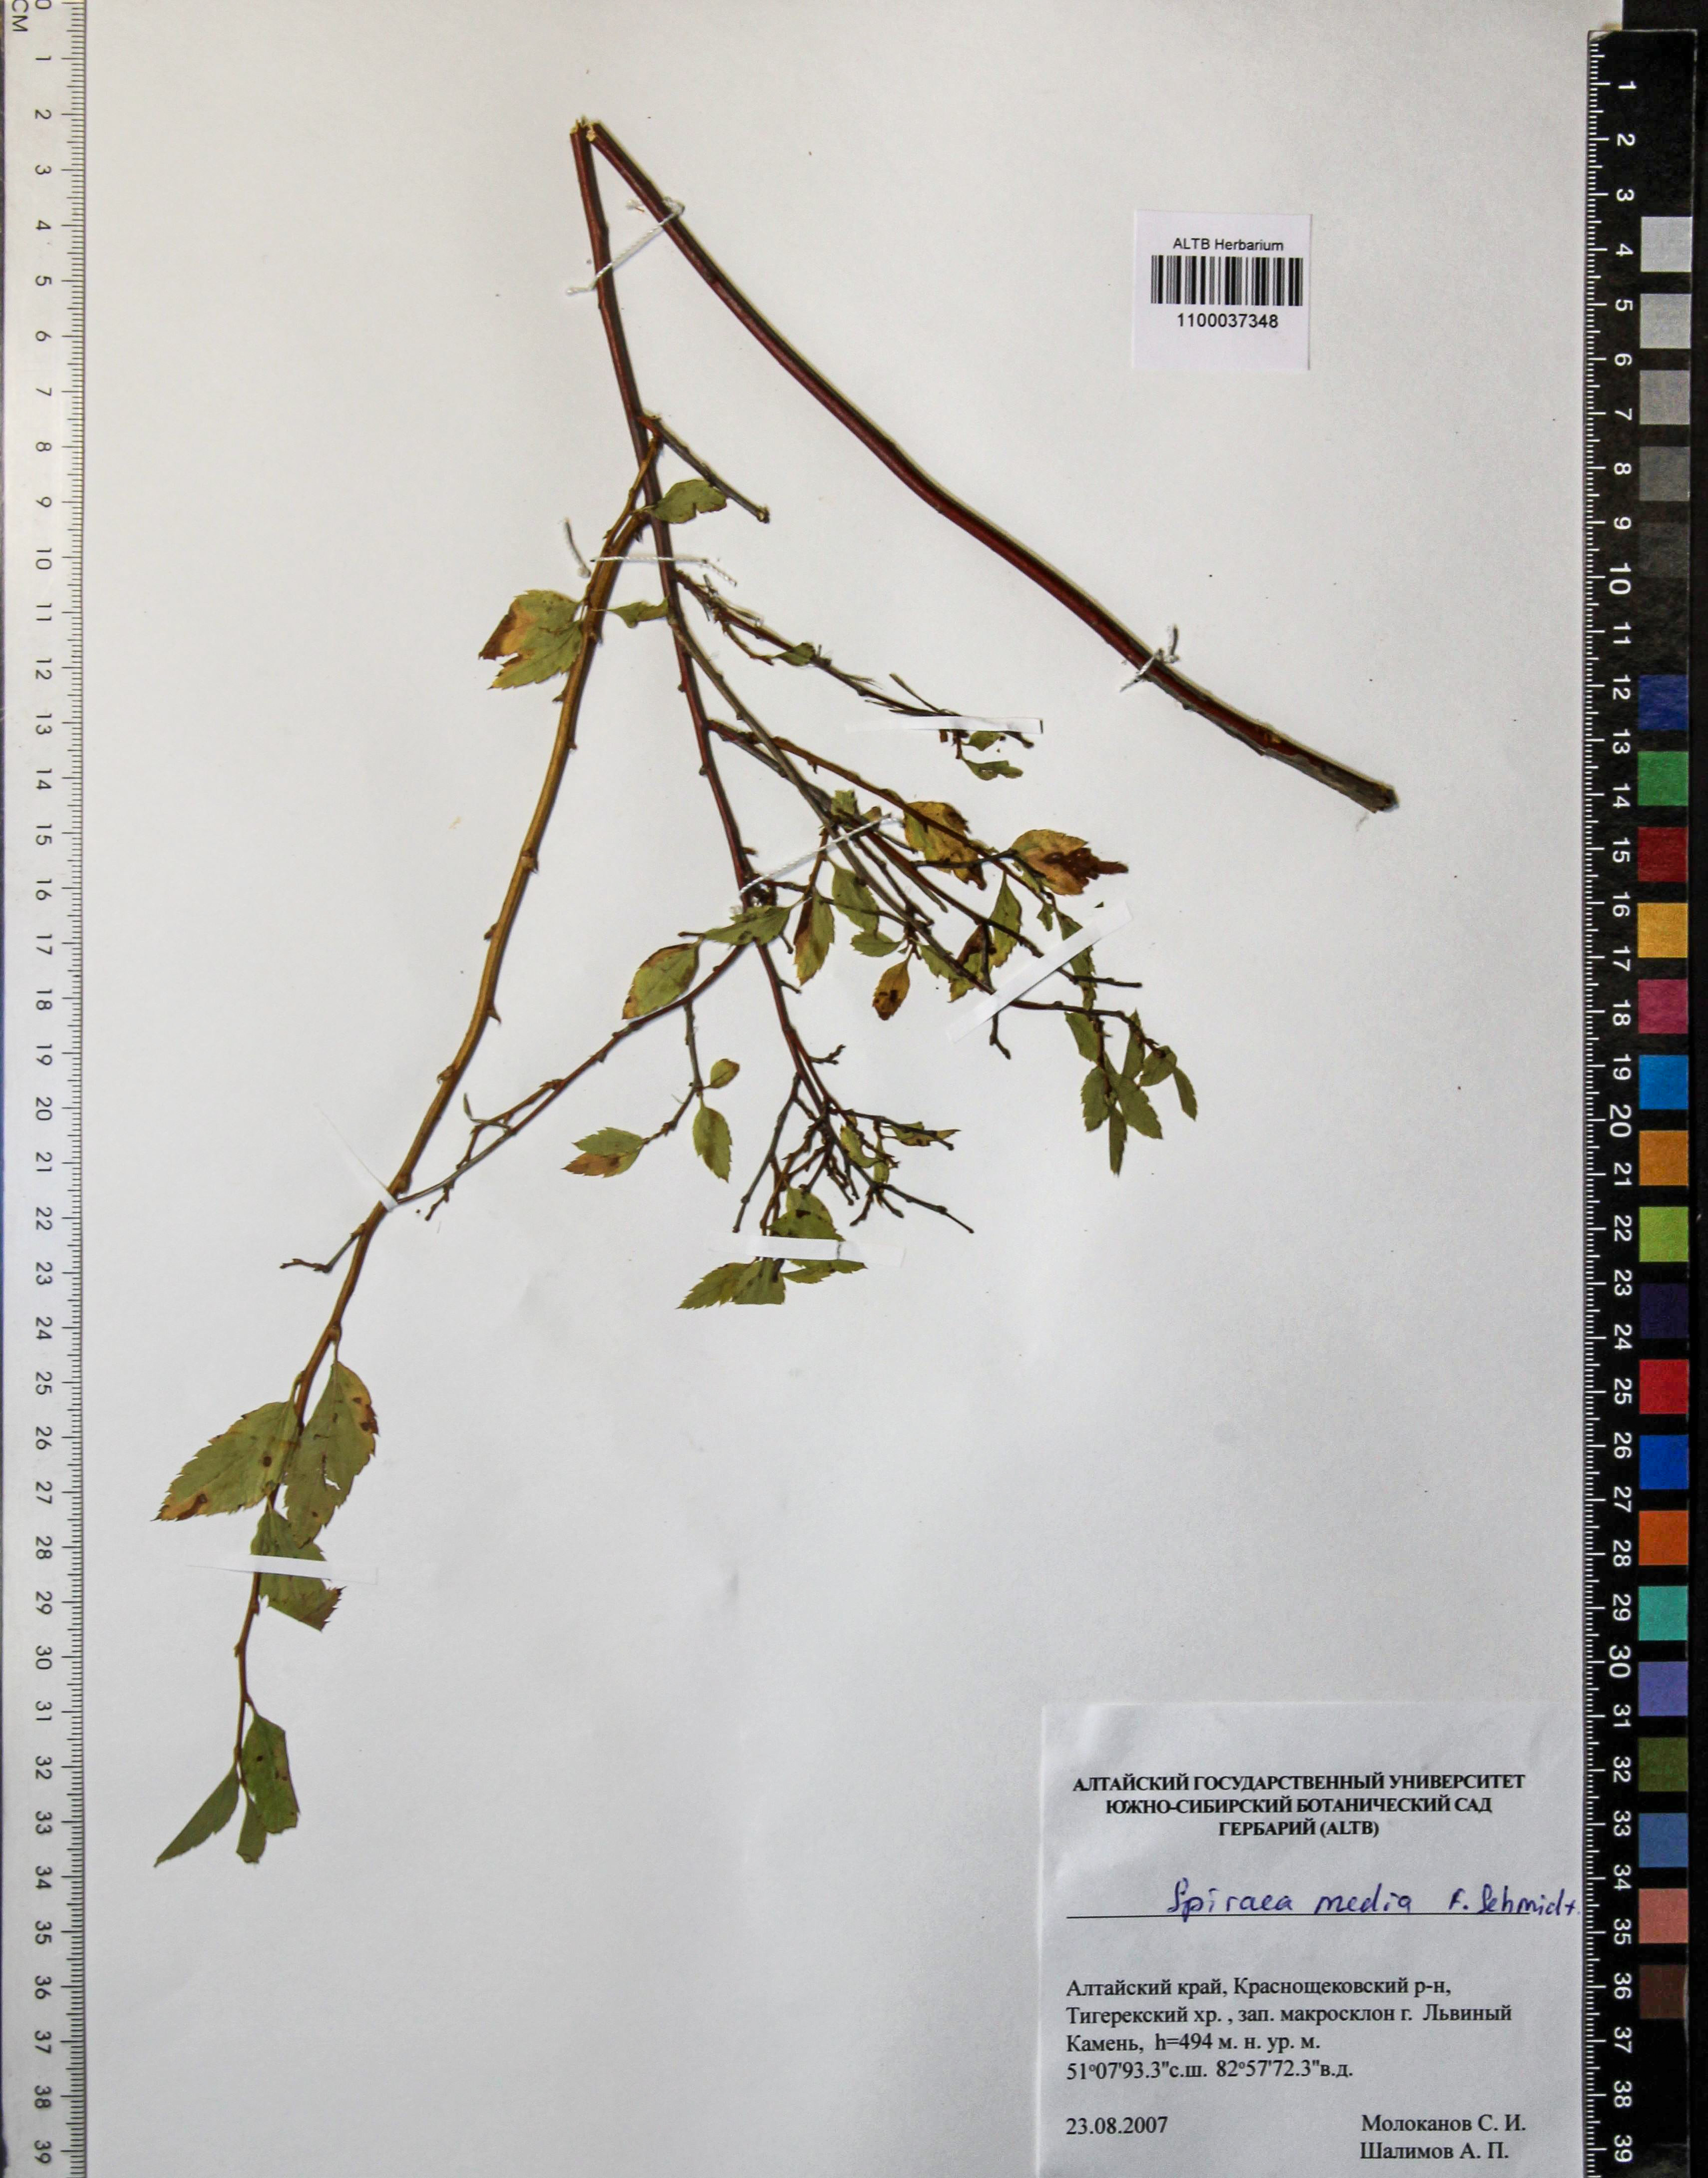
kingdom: Plantae
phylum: Tracheophyta
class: Magnoliopsida
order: Rosales
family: Rosaceae
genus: Spiraea
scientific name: Spiraea media
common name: Russian spiraea
